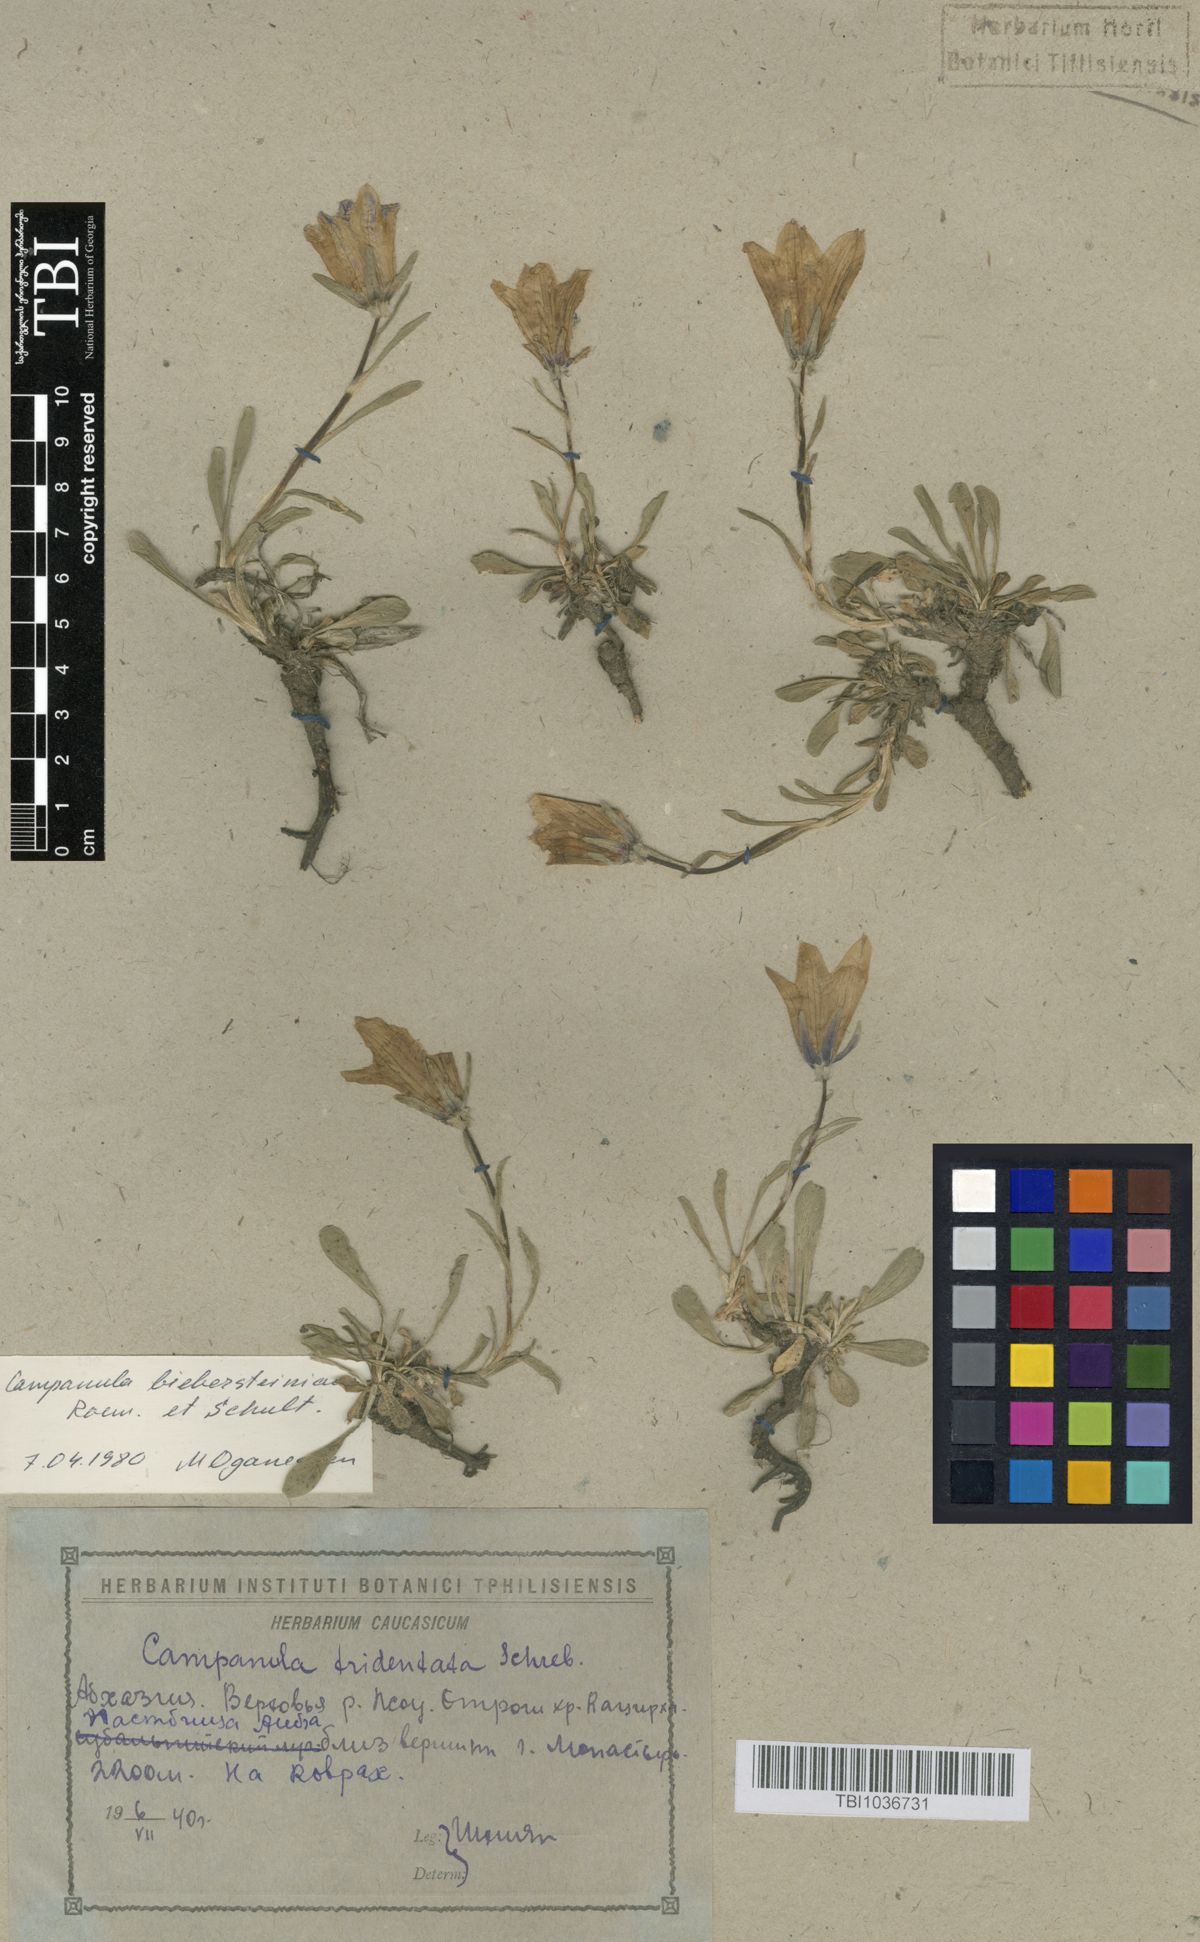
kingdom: Plantae
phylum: Tracheophyta
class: Magnoliopsida
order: Asterales
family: Campanulaceae
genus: Campanula
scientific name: Campanula tridentata
